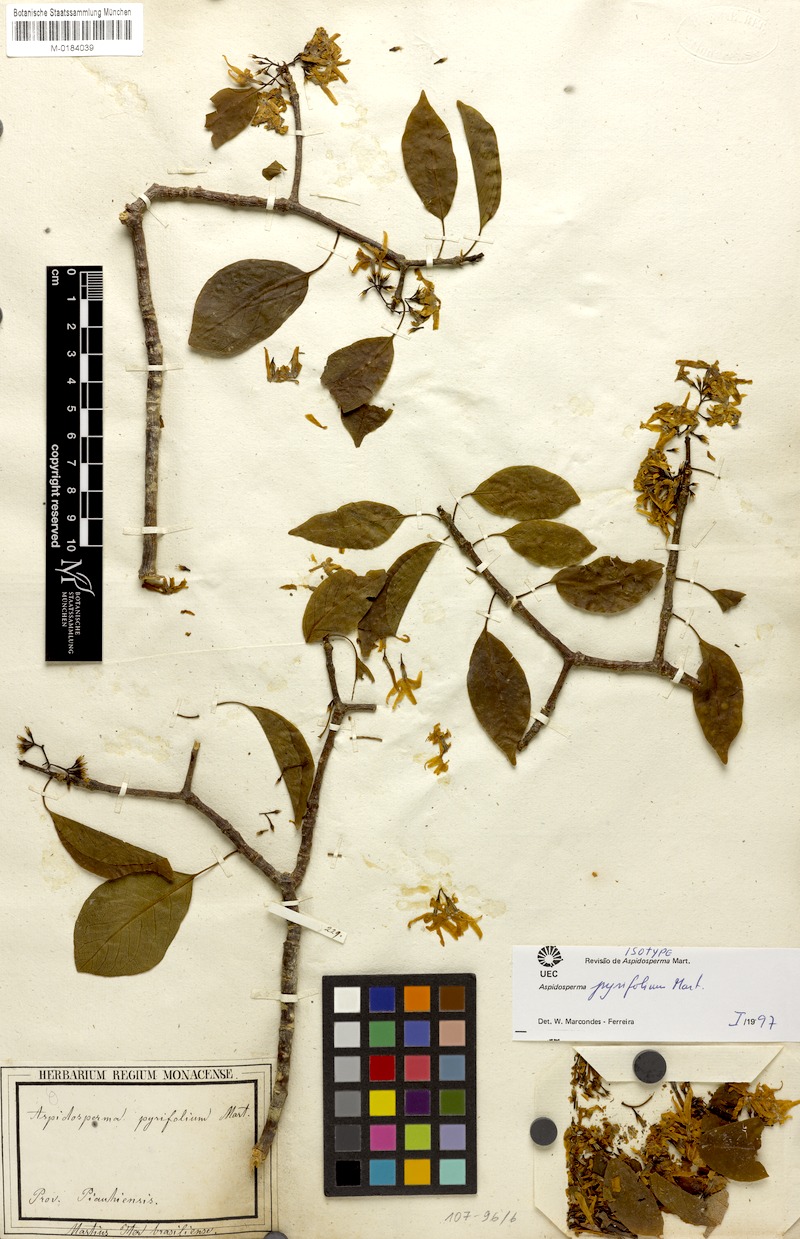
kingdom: Plantae
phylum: Tracheophyta
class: Magnoliopsida
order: Gentianales
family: Apocynaceae
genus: Aspidosperma
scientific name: Aspidosperma pyrifolium
